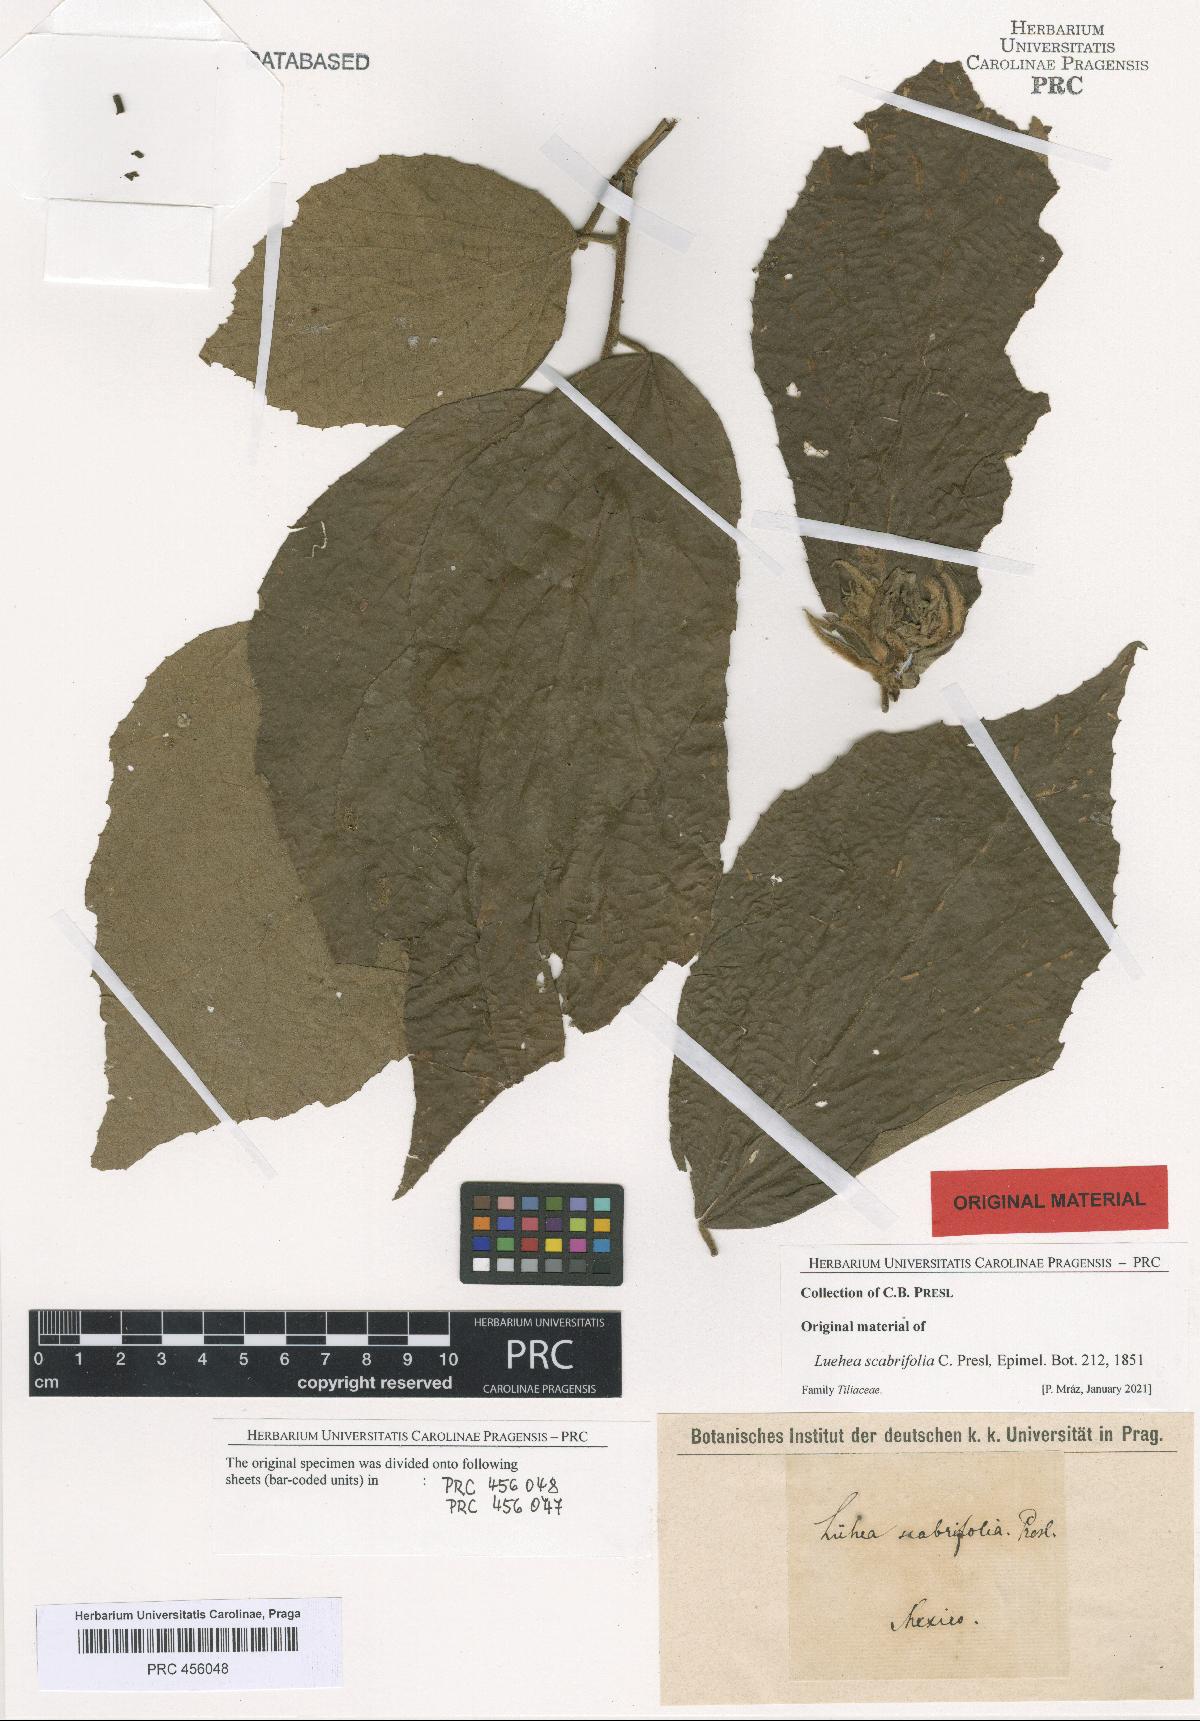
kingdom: Plantae
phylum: Tracheophyta
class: Magnoliopsida
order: Malvales
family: Malvaceae
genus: Luehea
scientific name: Luehea candida
